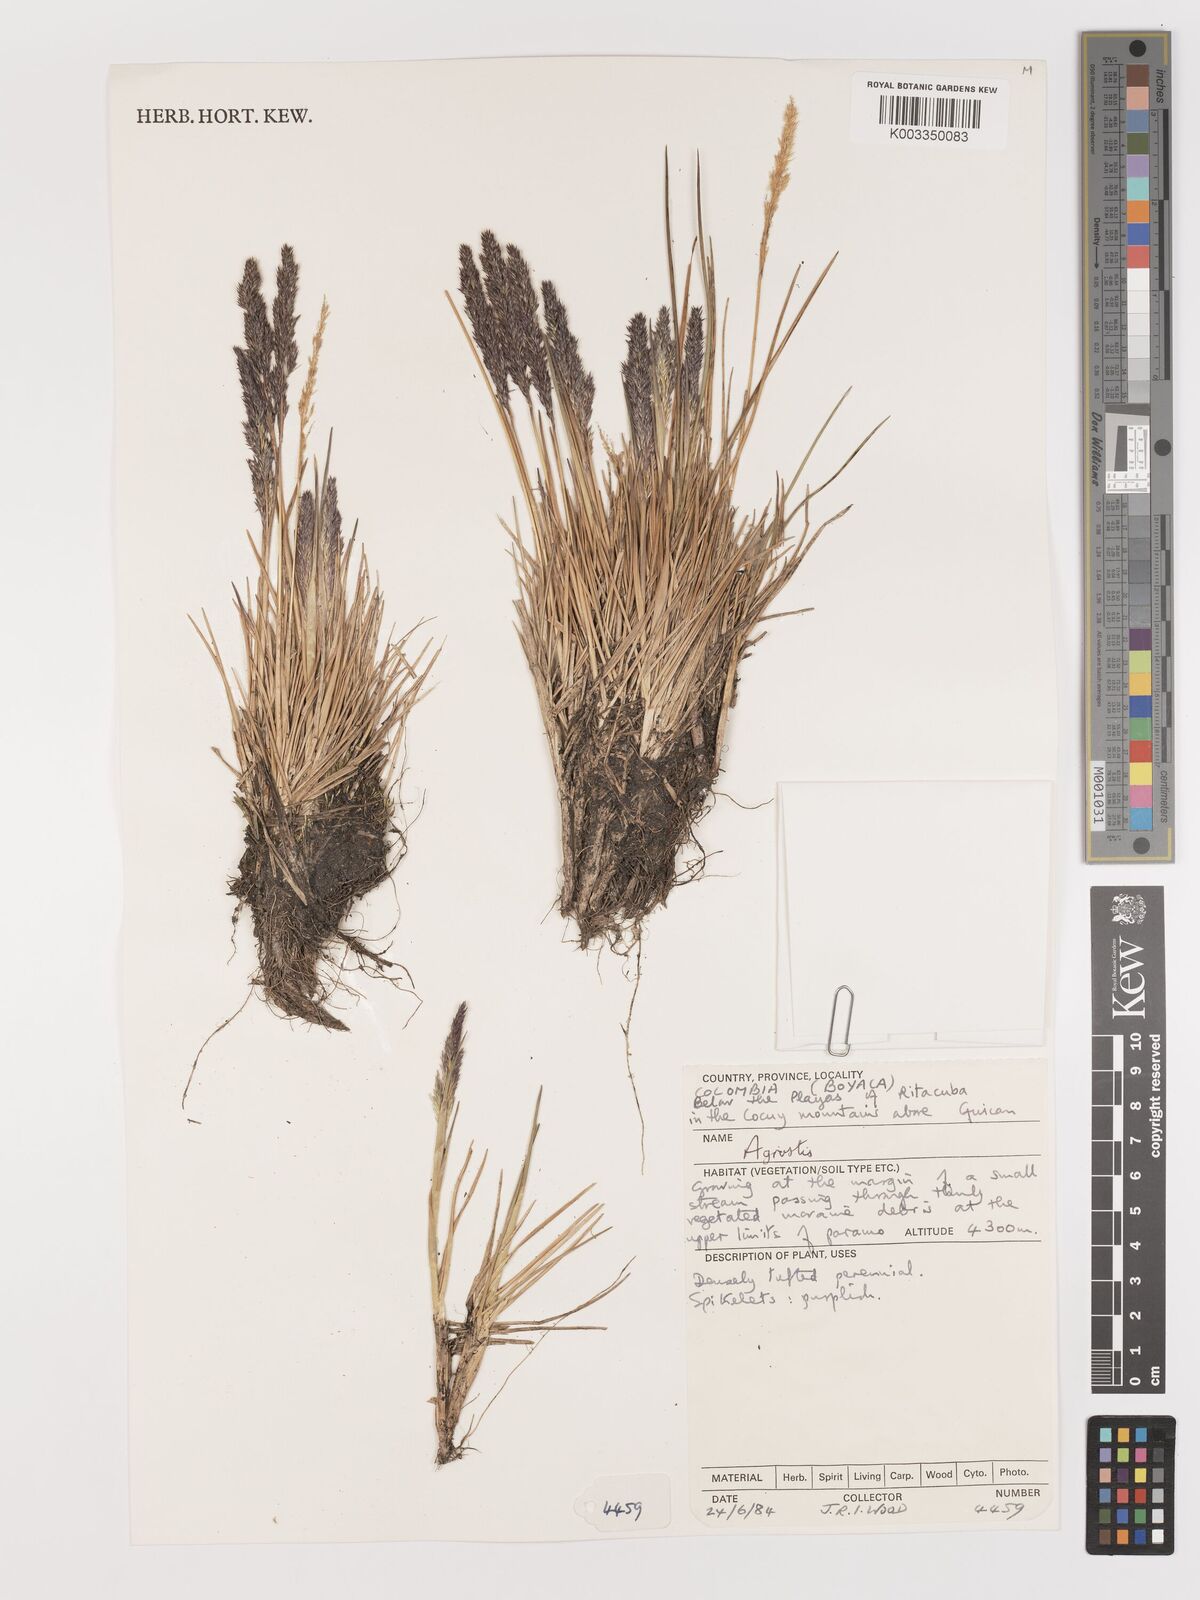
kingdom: Plantae
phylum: Tracheophyta
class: Liliopsida
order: Poales
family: Poaceae
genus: Agrostis
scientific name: Agrostis
